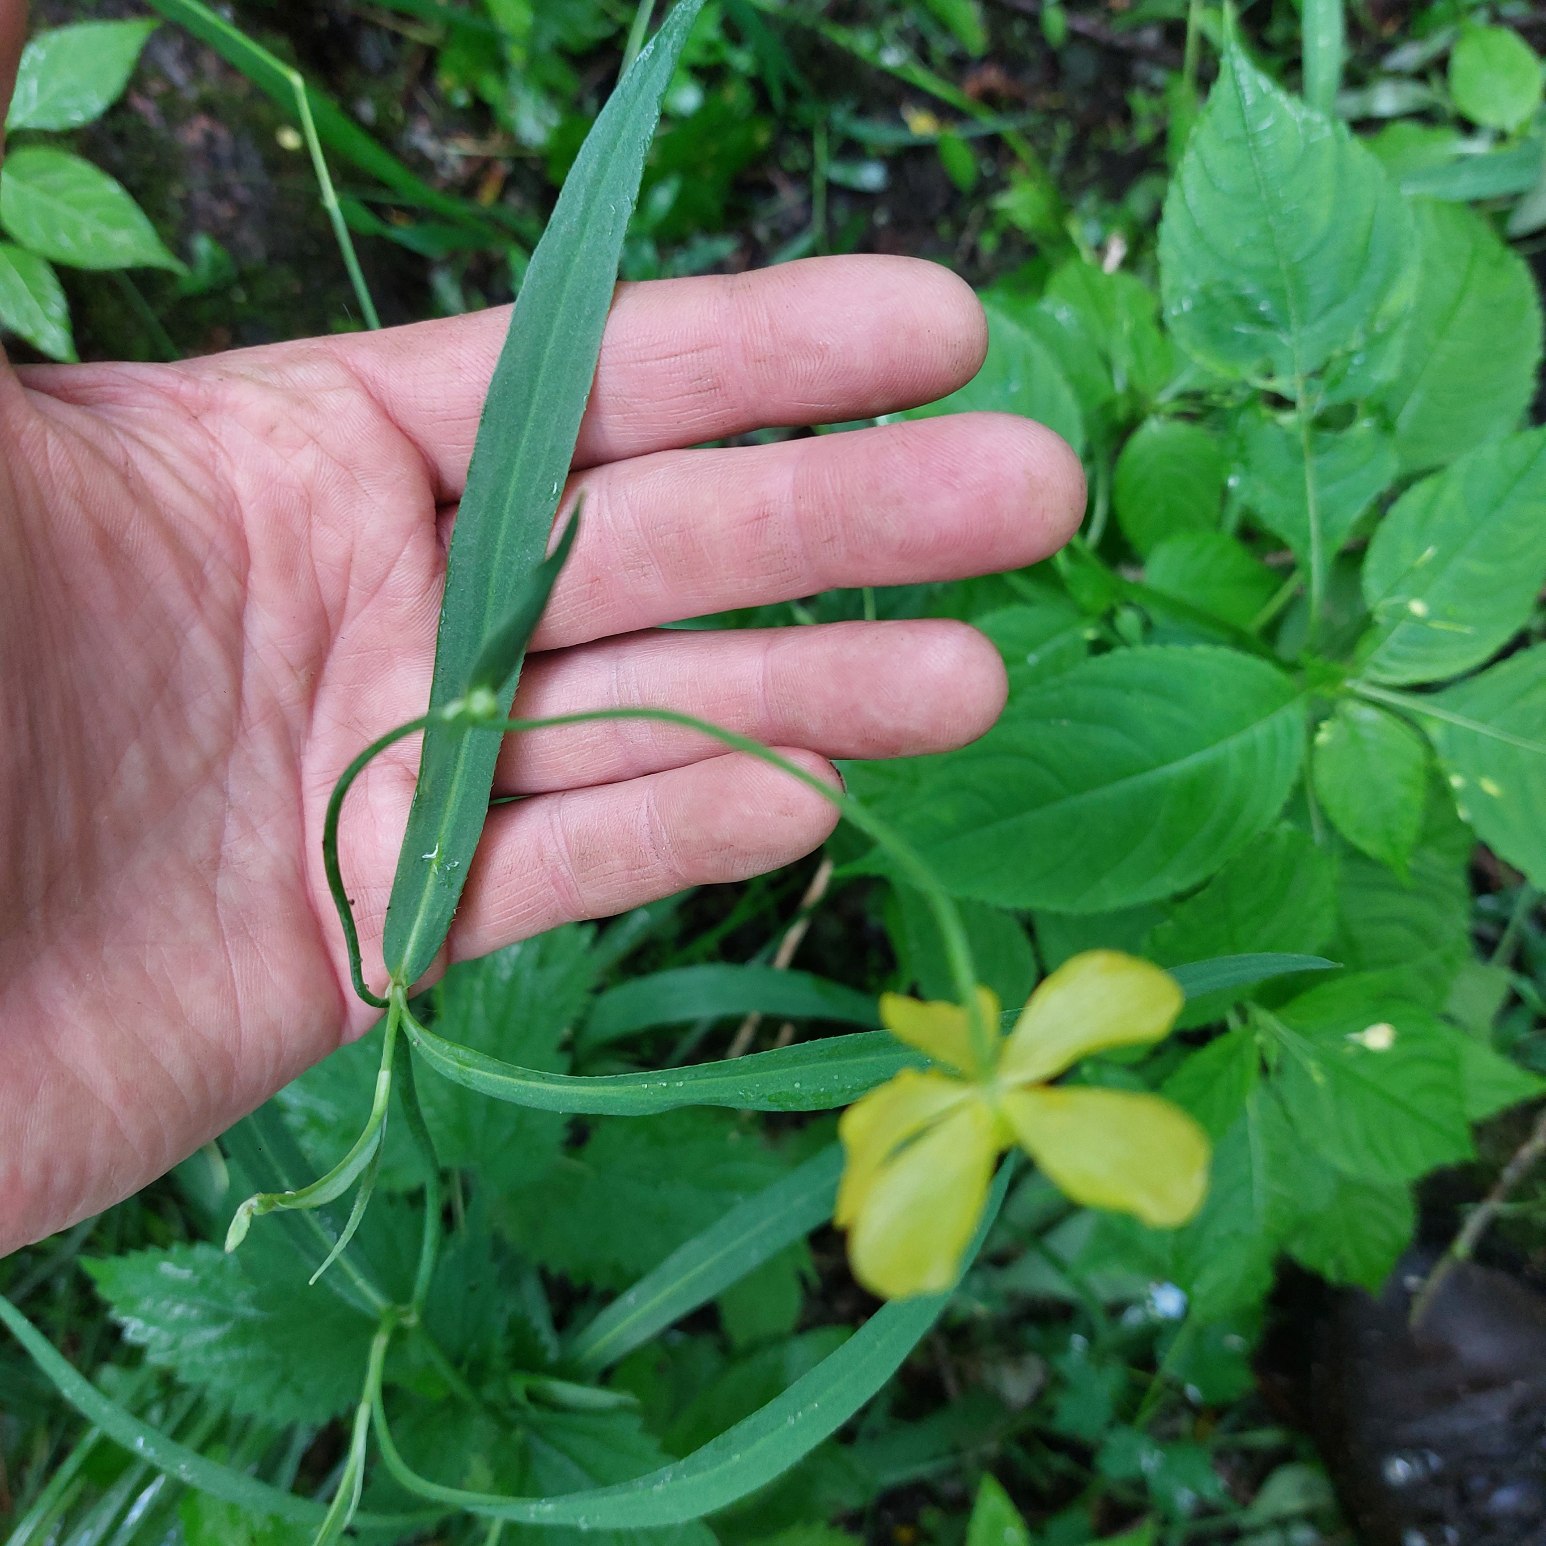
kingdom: Plantae
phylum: Tracheophyta
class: Magnoliopsida
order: Ranunculales
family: Ranunculaceae
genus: Ranunculus
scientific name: Ranunculus lingua
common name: Langbladet ranunkel
